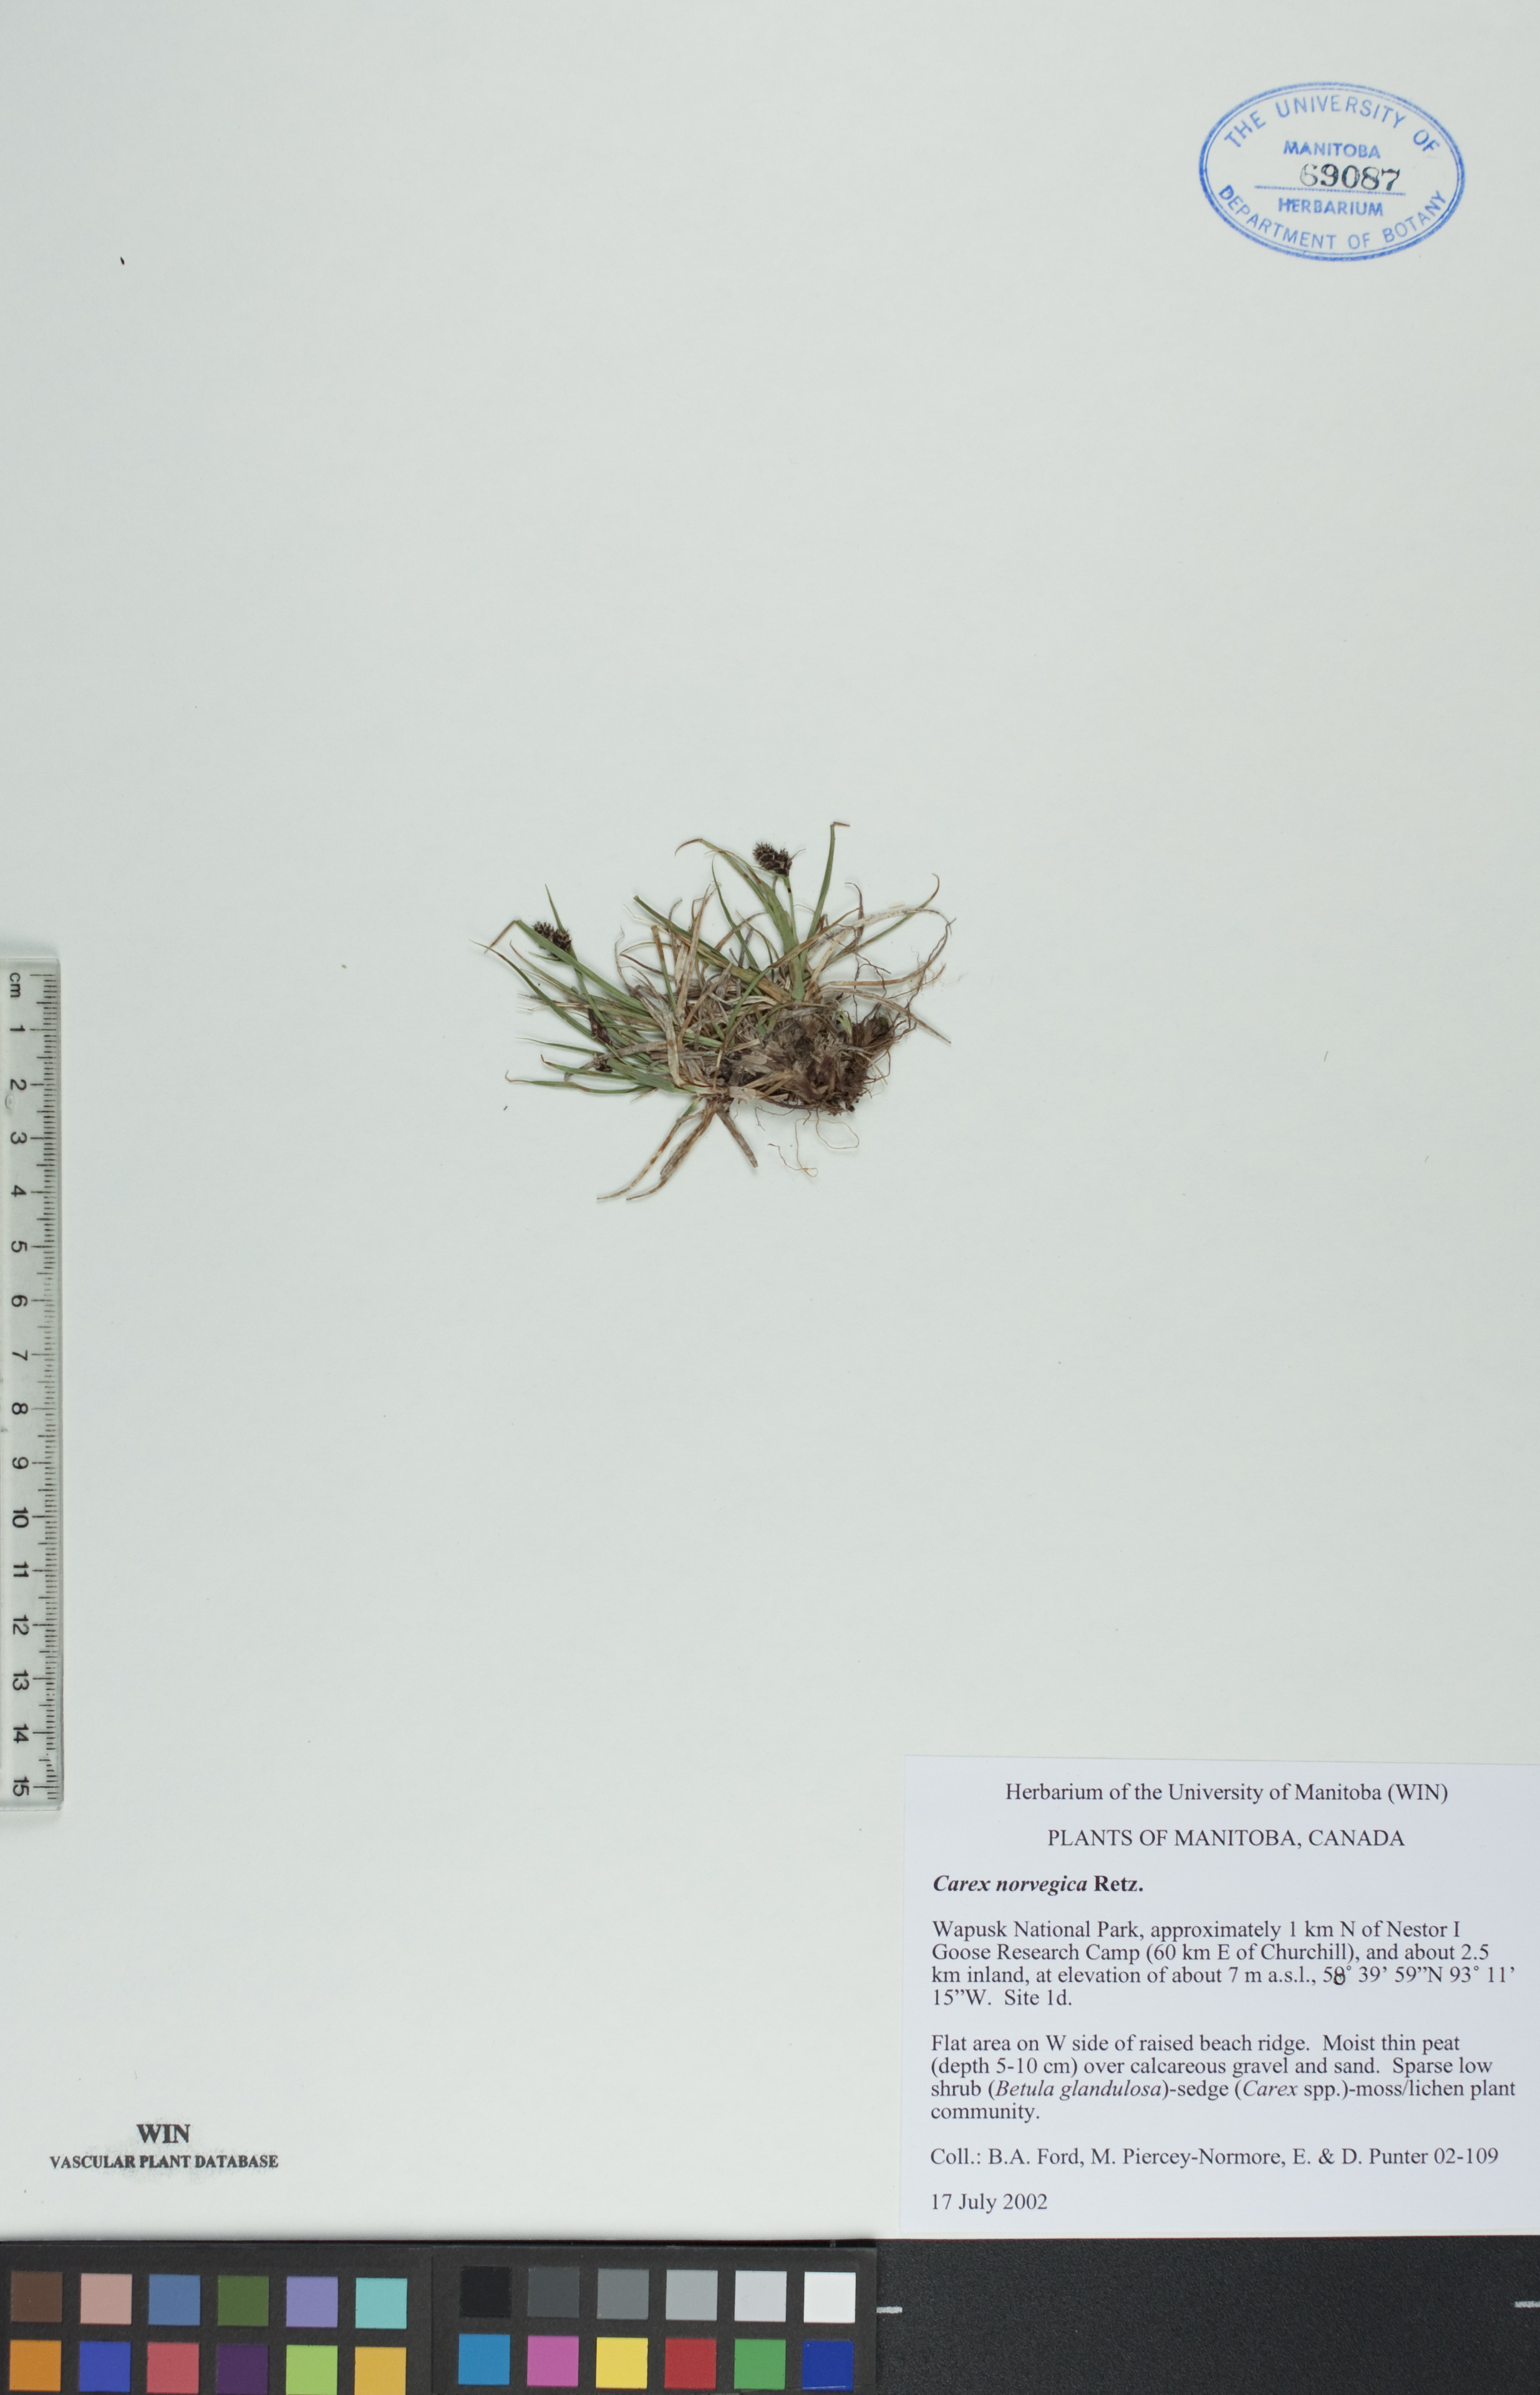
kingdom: Plantae
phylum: Tracheophyta
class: Liliopsida
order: Poales
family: Cyperaceae
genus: Carex
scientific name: Carex norvegica
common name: Close-headed alpine-sedge
